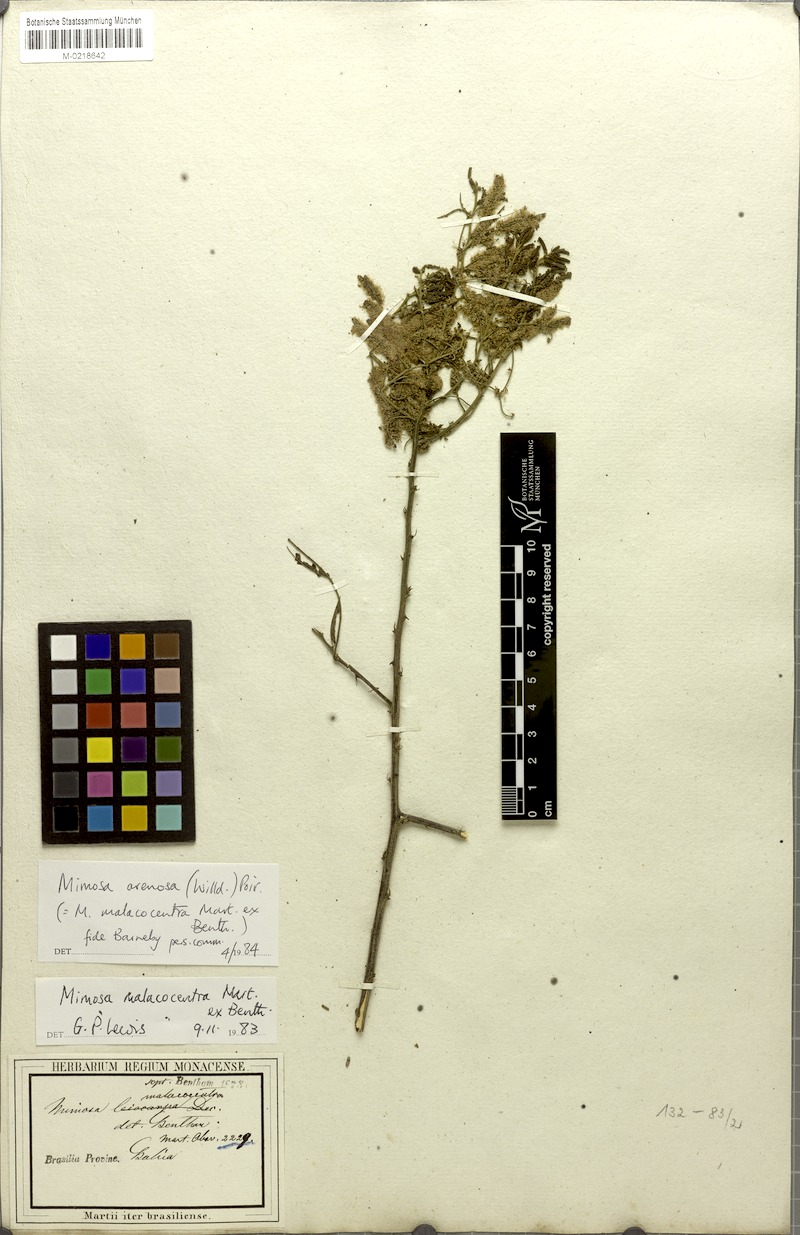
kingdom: Plantae
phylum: Tracheophyta
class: Magnoliopsida
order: Fabales
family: Fabaceae
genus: Mimosa
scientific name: Mimosa arenosa
